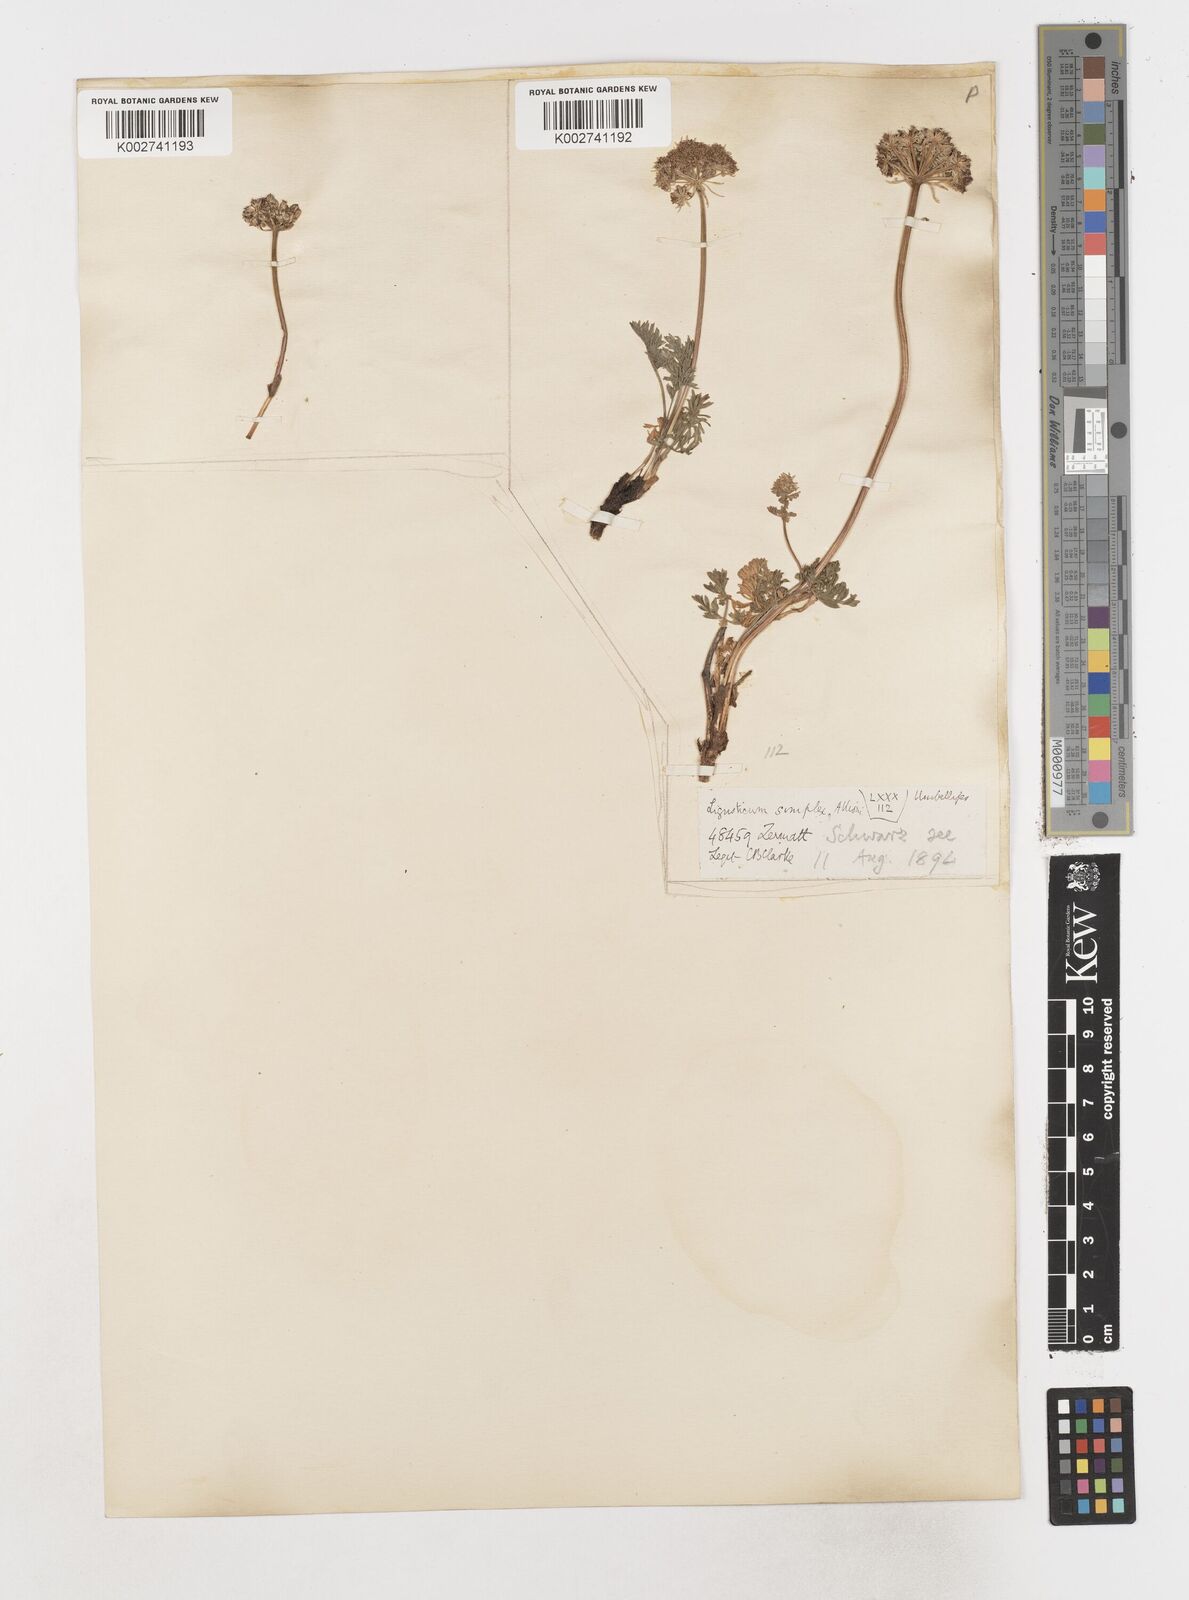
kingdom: Plantae
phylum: Tracheophyta
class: Magnoliopsida
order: Apiales
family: Apiaceae
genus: Pachypleurum
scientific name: Pachypleurum mutellinoides
